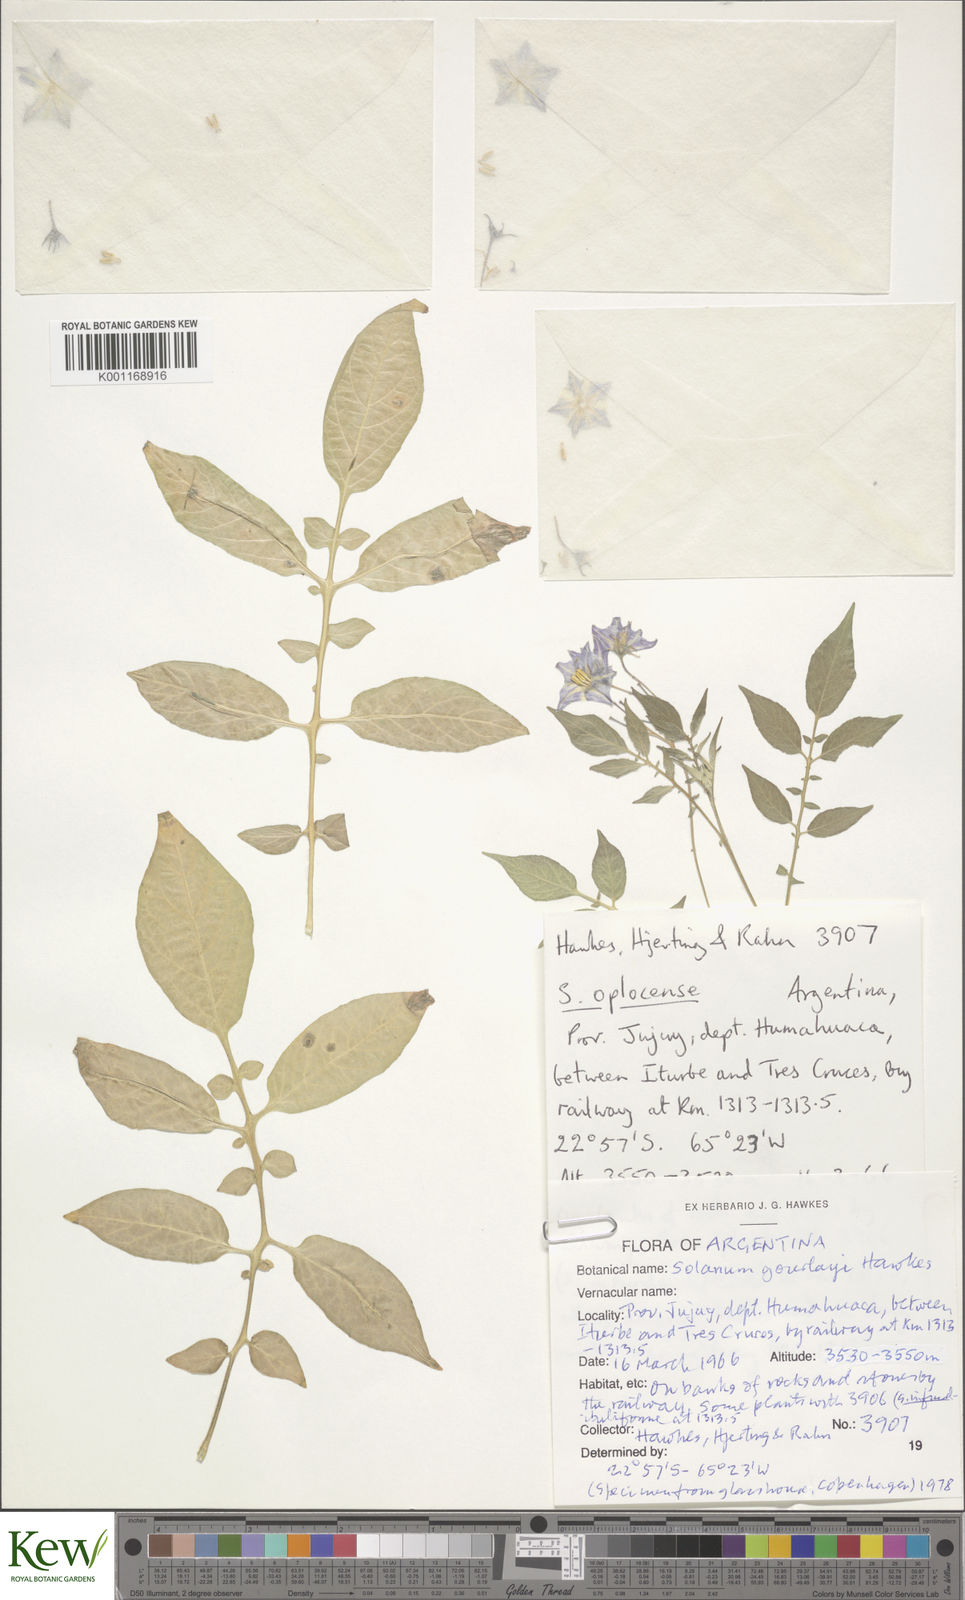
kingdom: Plantae
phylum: Tracheophyta
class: Magnoliopsida
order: Solanales
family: Solanaceae
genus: Solanum
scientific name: Solanum brevicaule
